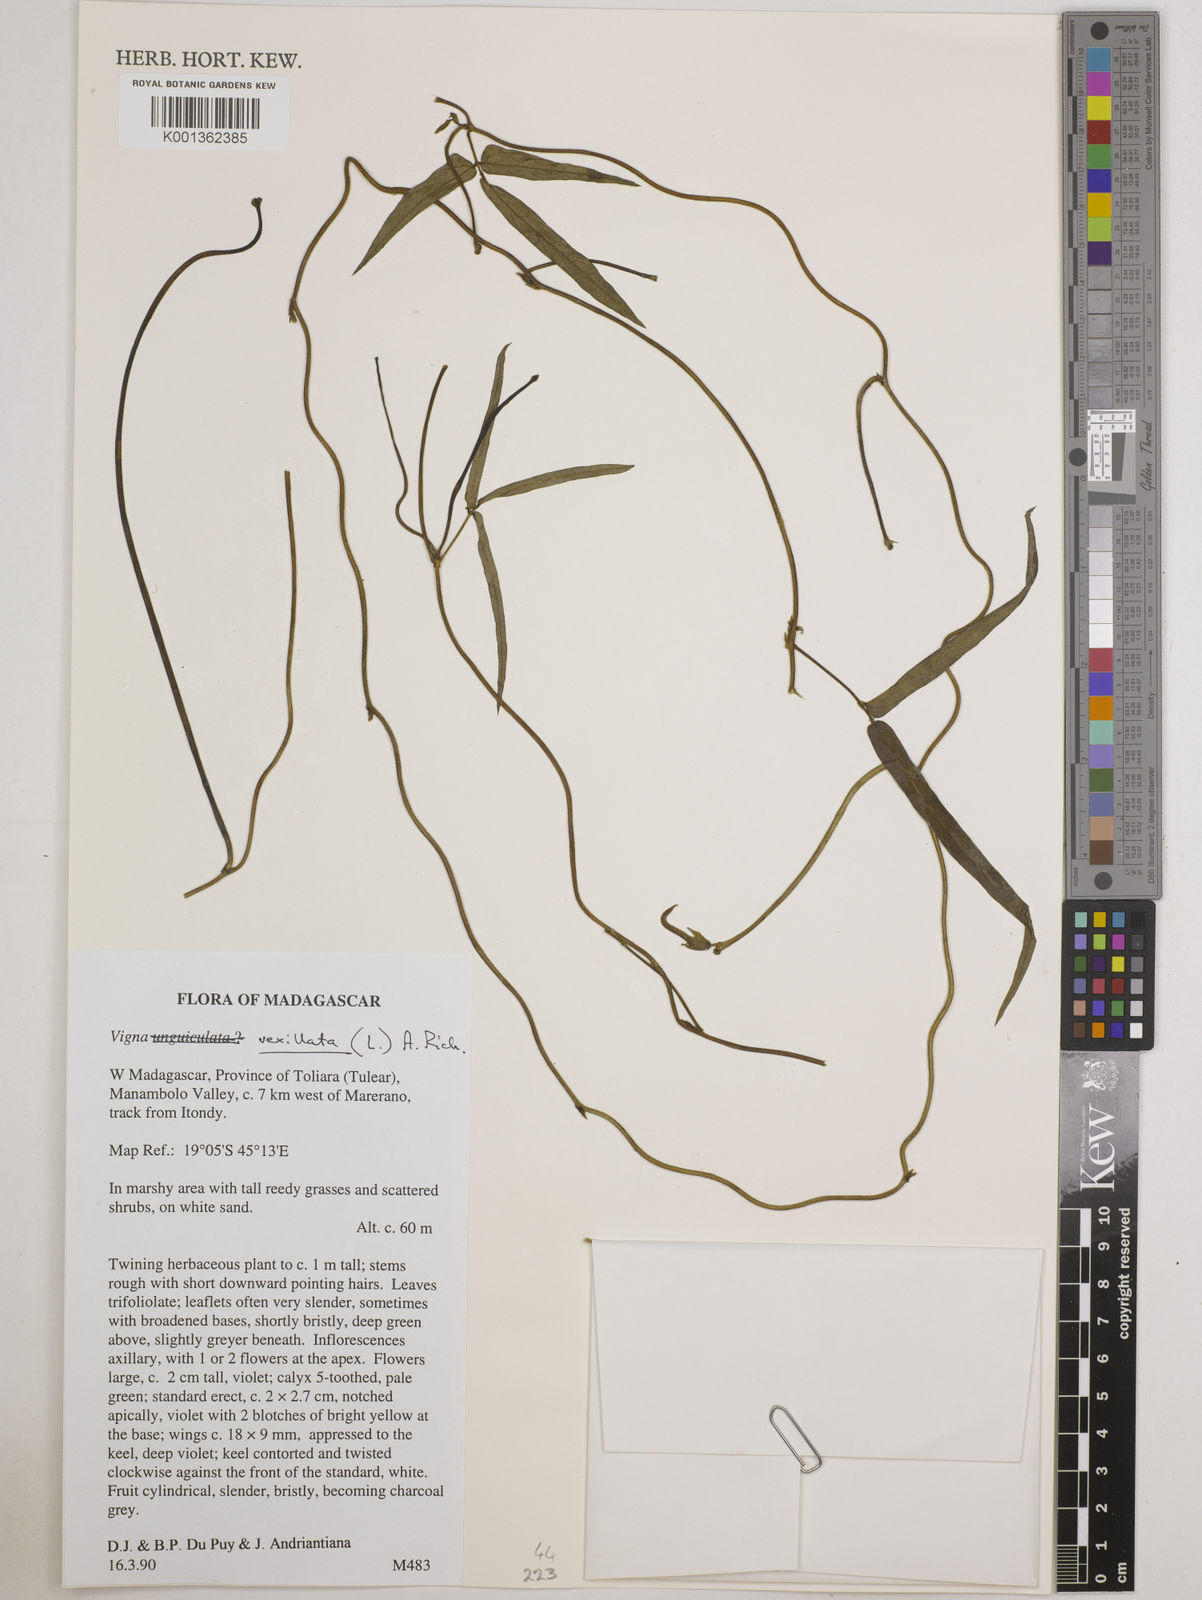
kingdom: Plantae
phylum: Tracheophyta
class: Magnoliopsida
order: Fabales
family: Fabaceae
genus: Vigna
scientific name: Vigna vexillata
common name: Zombi pea
